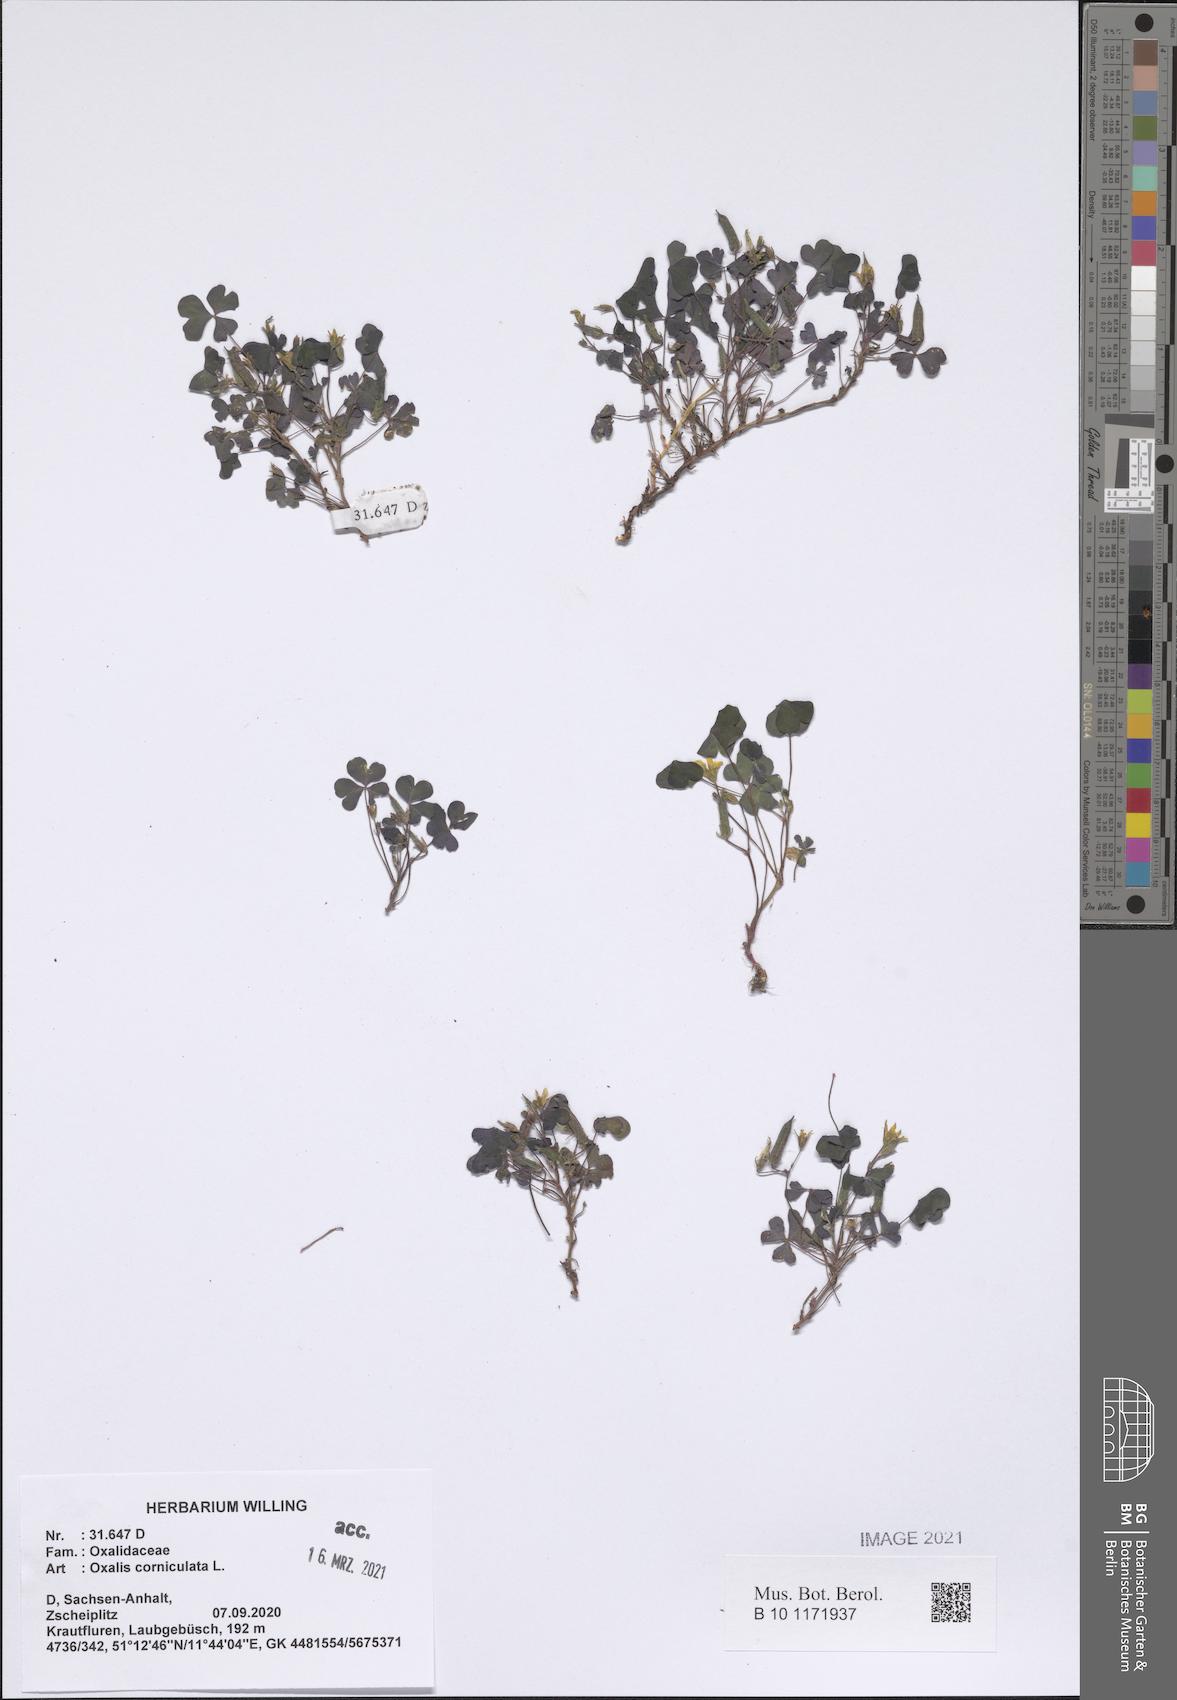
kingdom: Plantae
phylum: Tracheophyta
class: Magnoliopsida
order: Oxalidales
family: Oxalidaceae
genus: Oxalis
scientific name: Oxalis corniculata
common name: Procumbent yellow-sorrel
